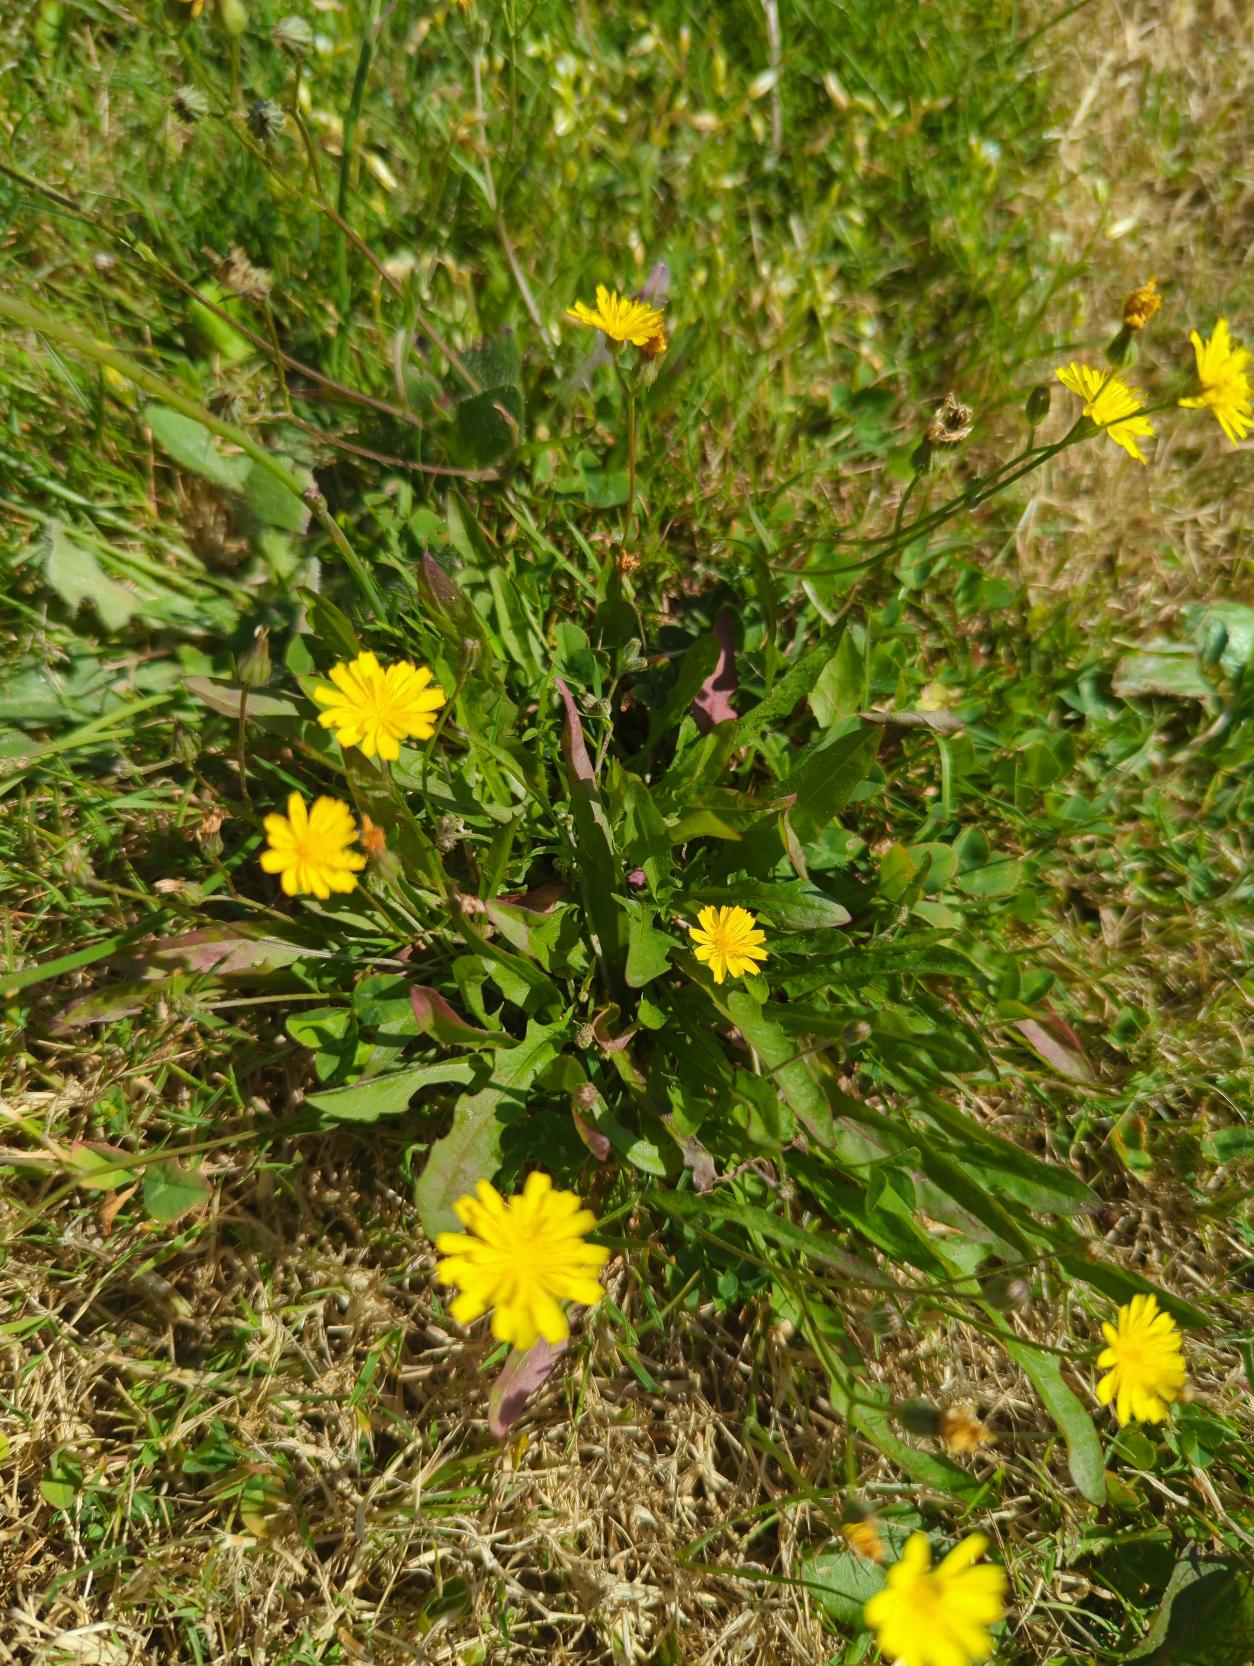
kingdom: Plantae
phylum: Tracheophyta
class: Magnoliopsida
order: Asterales
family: Asteraceae
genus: Crepis
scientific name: Crepis capillaris
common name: Grøn høgeskæg
